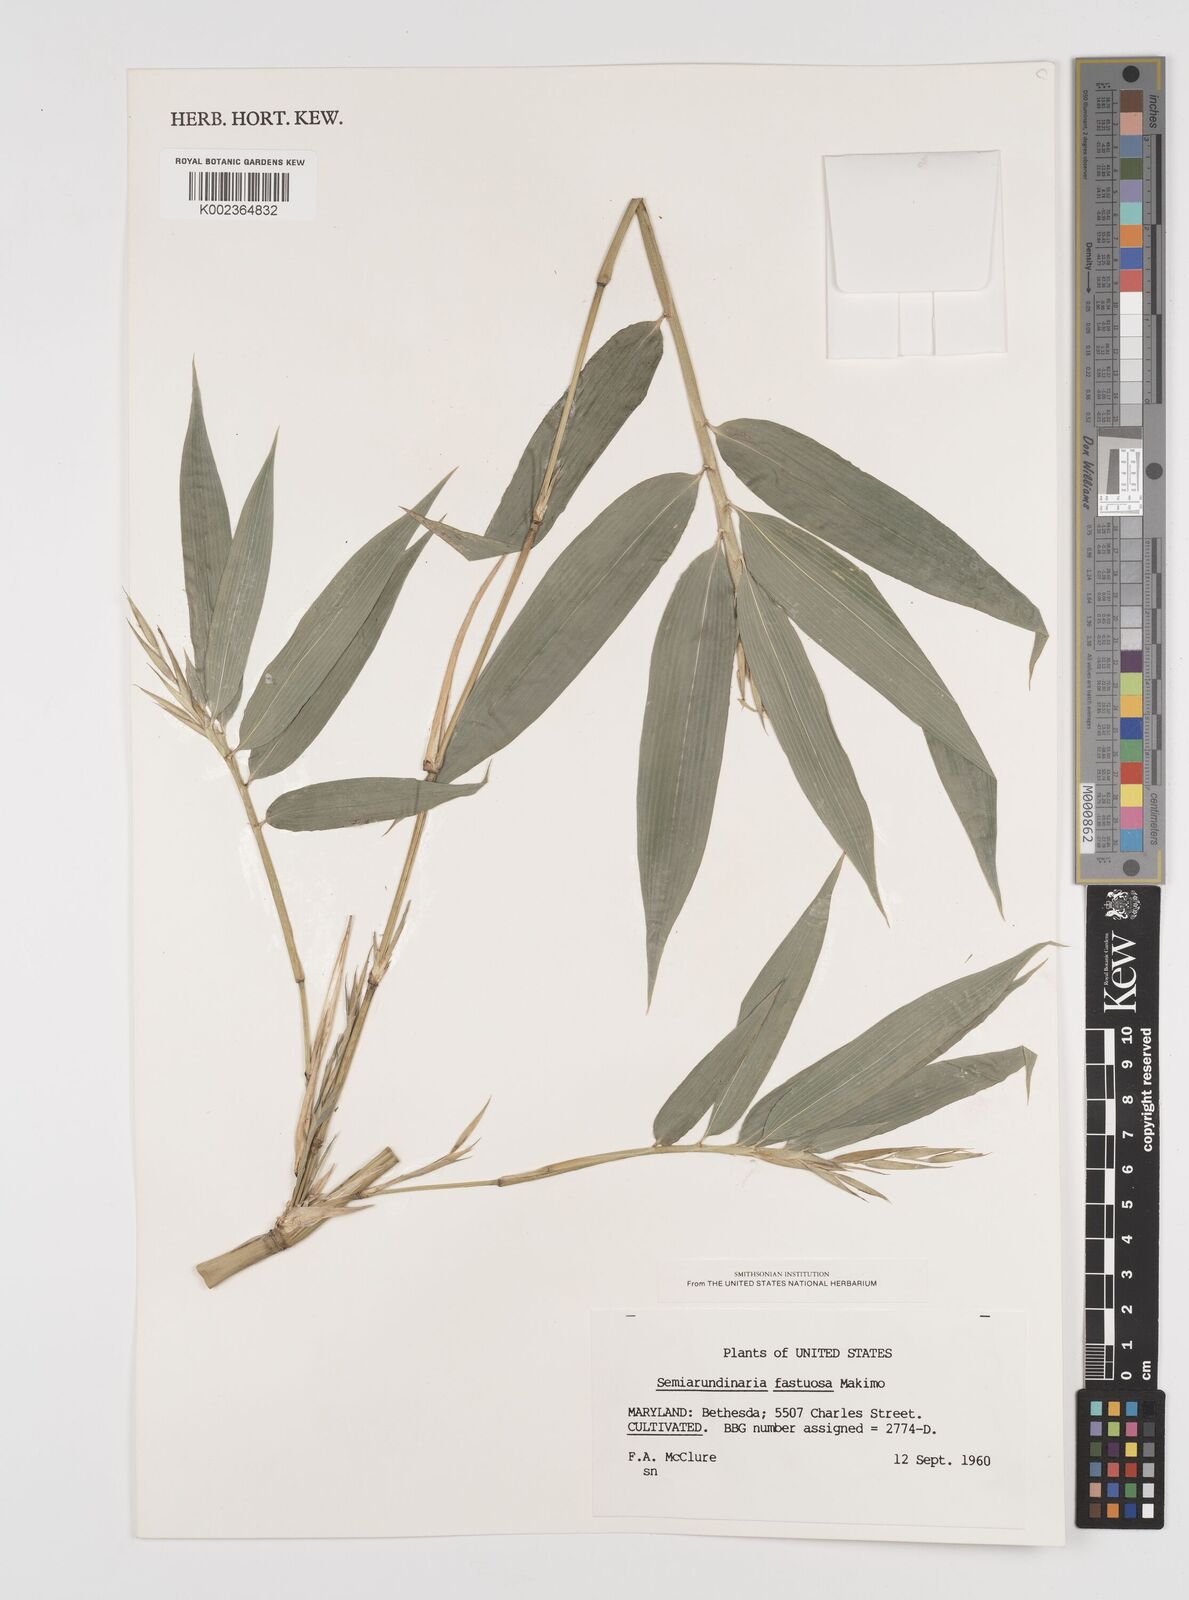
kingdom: Plantae
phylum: Tracheophyta
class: Liliopsida
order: Poales
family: Poaceae
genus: Semiarundinaria
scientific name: Semiarundinaria fastuosa
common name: Narihira bamboo
